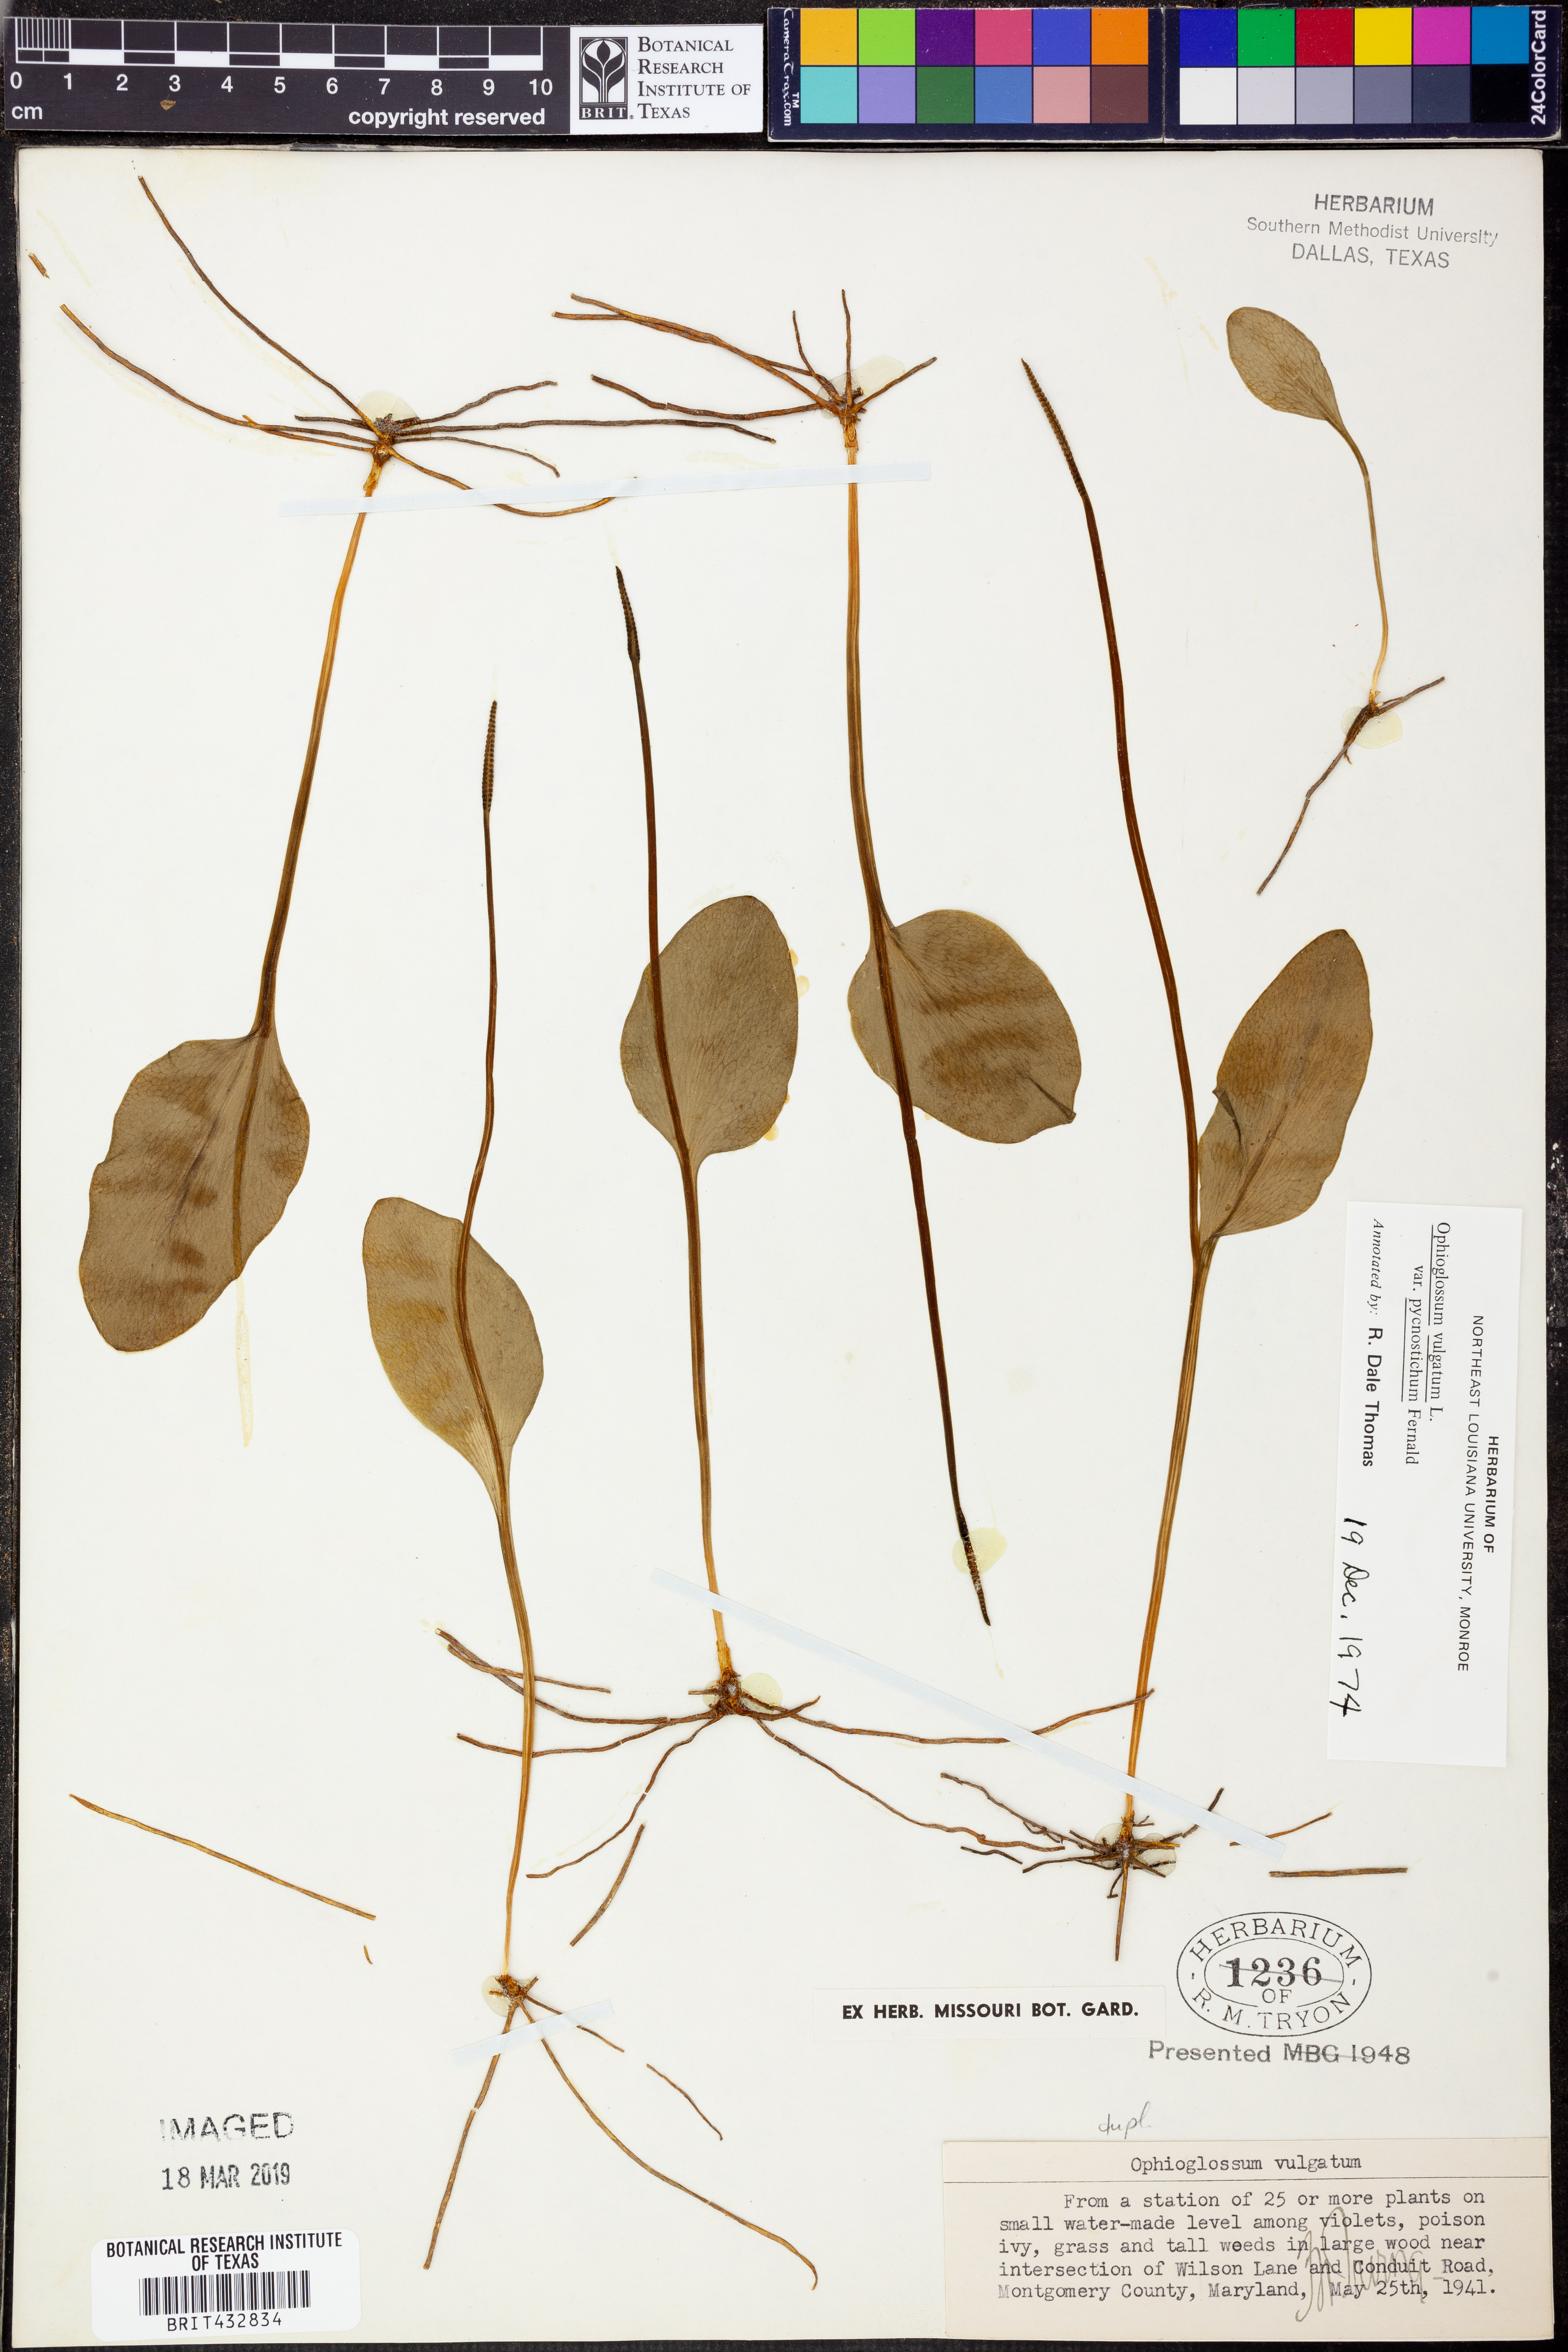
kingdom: Plantae
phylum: Tracheophyta
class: Polypodiopsida
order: Ophioglossales
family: Ophioglossaceae
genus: Ophioglossum
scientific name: Ophioglossum vulgatum
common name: Adder's-tongue
